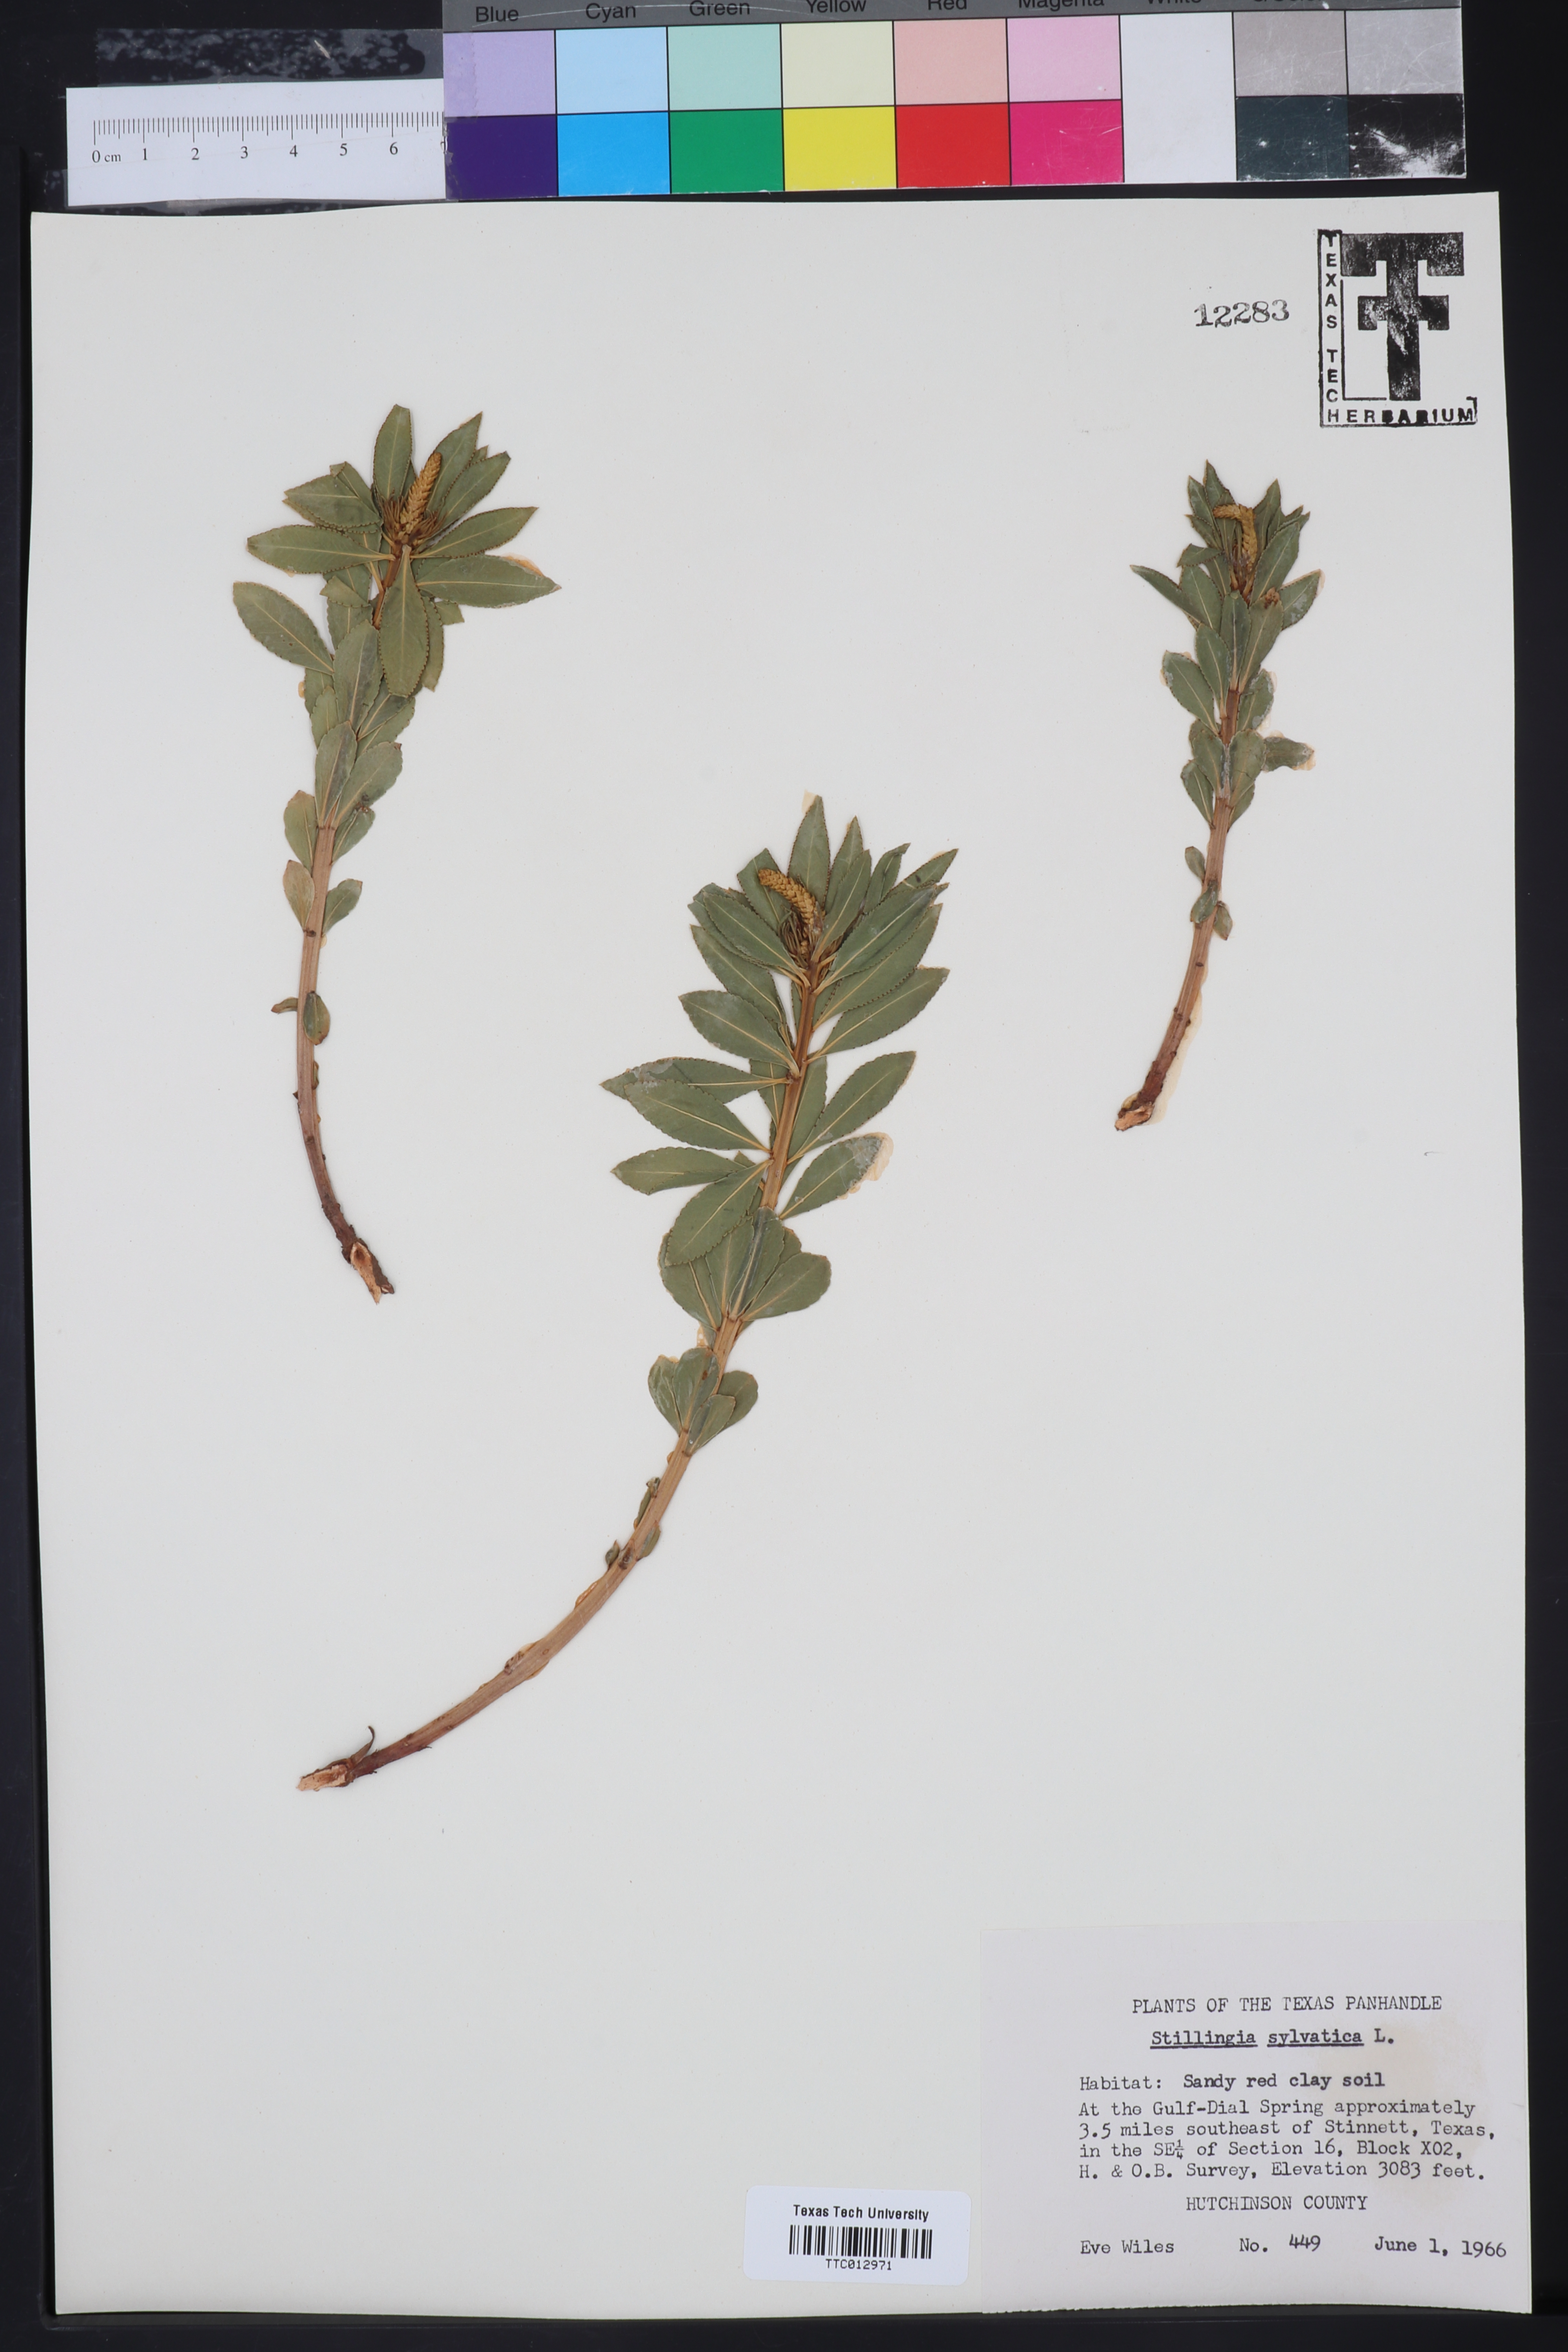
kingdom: Plantae
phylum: Tracheophyta
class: Magnoliopsida
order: Malpighiales
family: Euphorbiaceae
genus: Stillingia
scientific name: Stillingia sylvatica
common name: Queen's-delight
